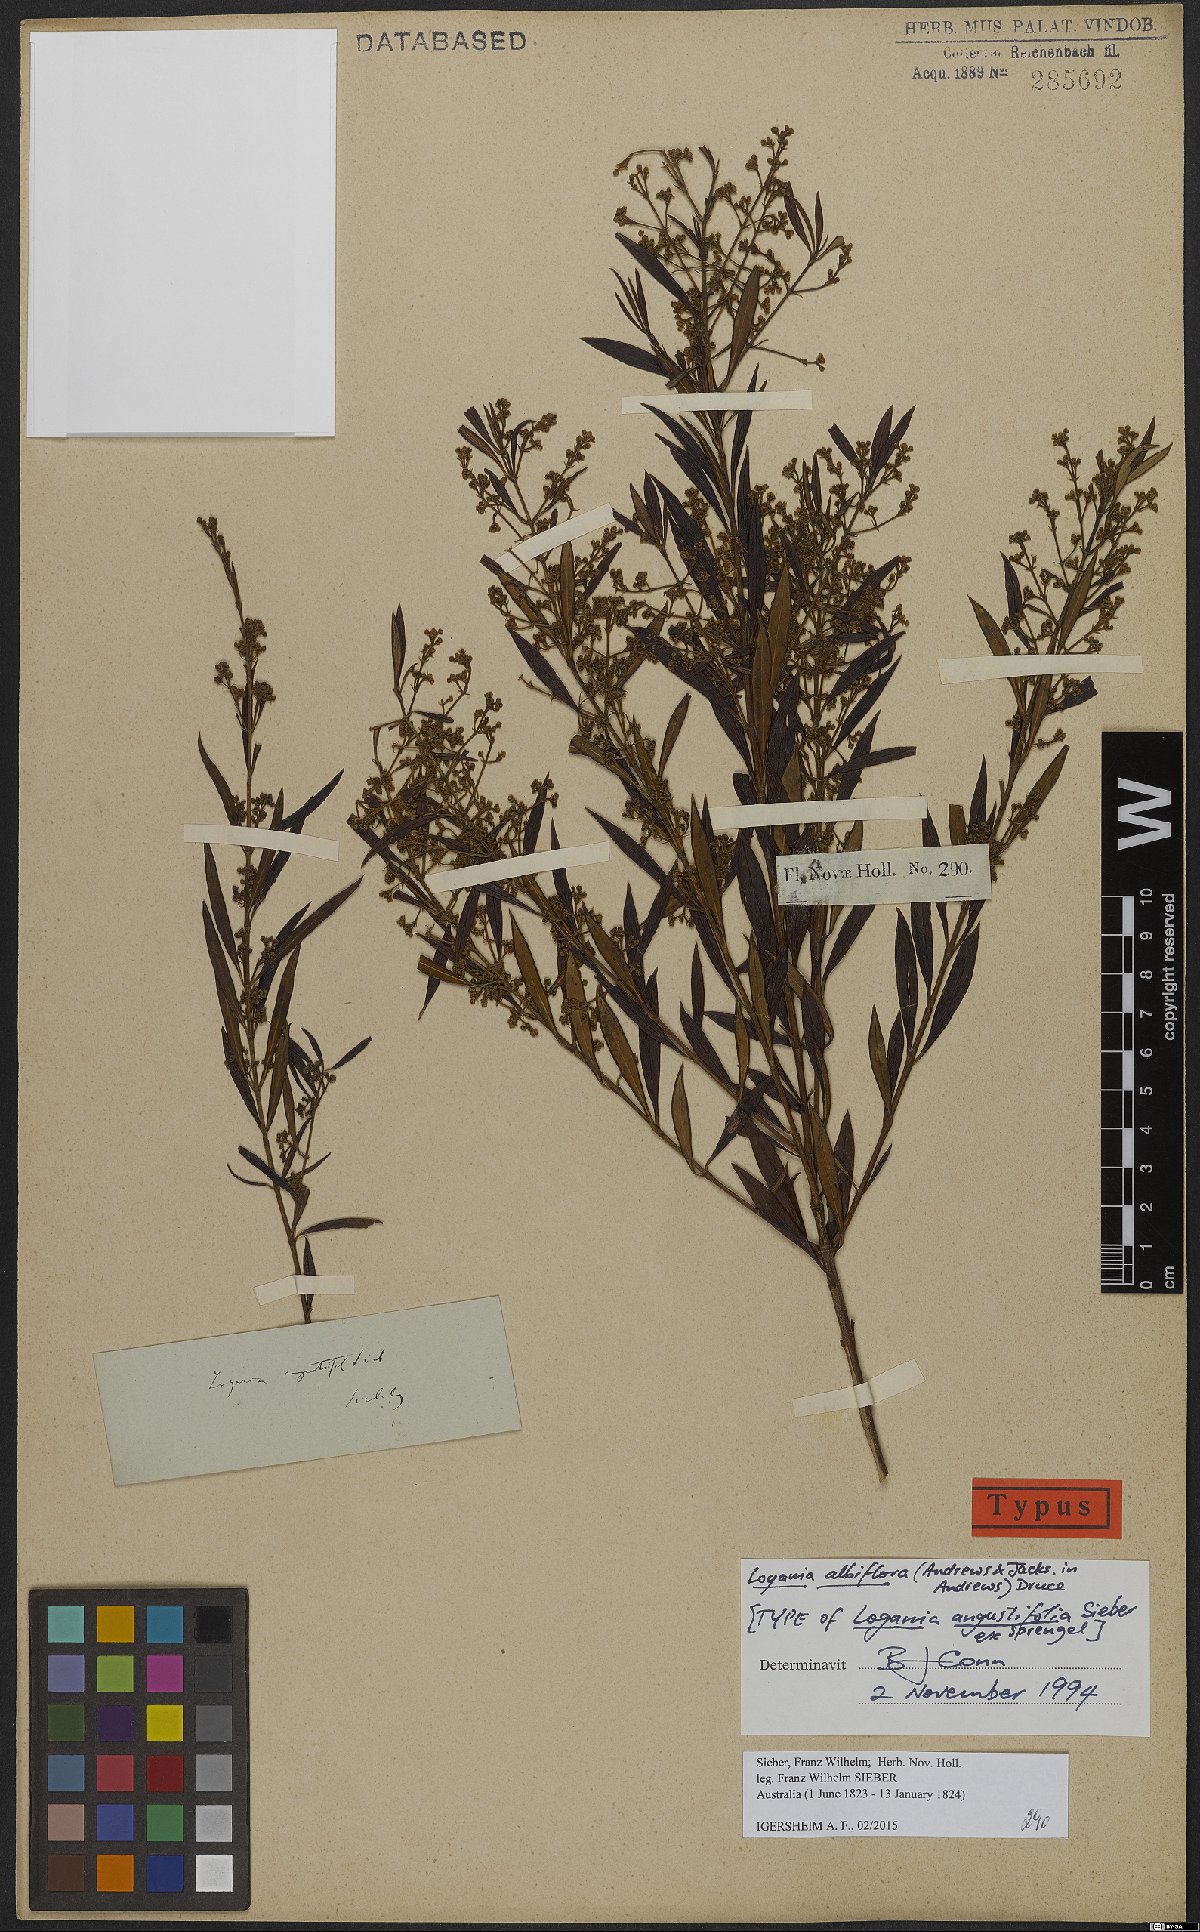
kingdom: Plantae
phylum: Tracheophyta
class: Magnoliopsida
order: Gentianales
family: Loganiaceae
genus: Logania
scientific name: Logania albiflora
